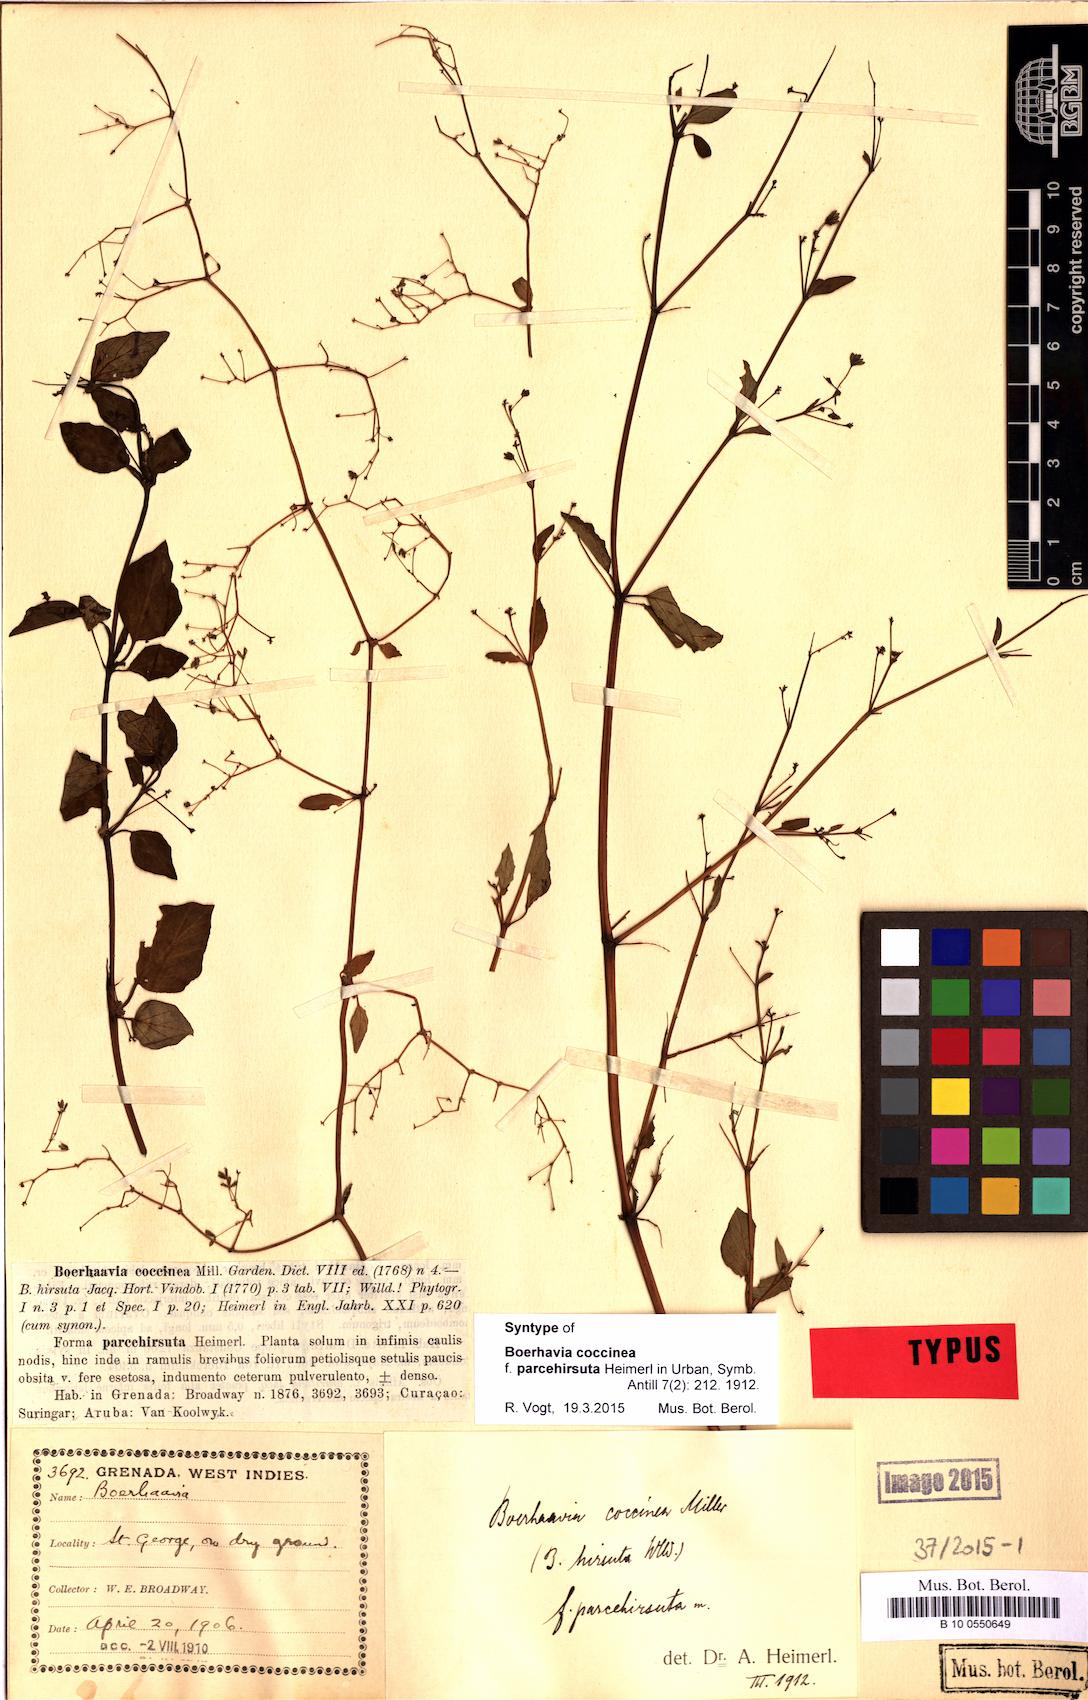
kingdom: Plantae
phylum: Tracheophyta
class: Magnoliopsida
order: Caryophyllales
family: Nyctaginaceae
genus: Boerhavia
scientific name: Boerhavia coccinea
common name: Scarlet spiderling
